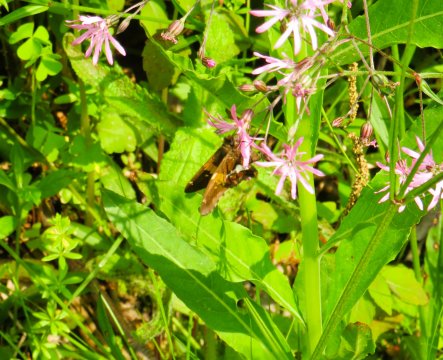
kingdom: Animalia
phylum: Arthropoda
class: Insecta
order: Lepidoptera
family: Hesperiidae
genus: Epargyreus
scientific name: Epargyreus clarus
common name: Silver-spotted Skipper
